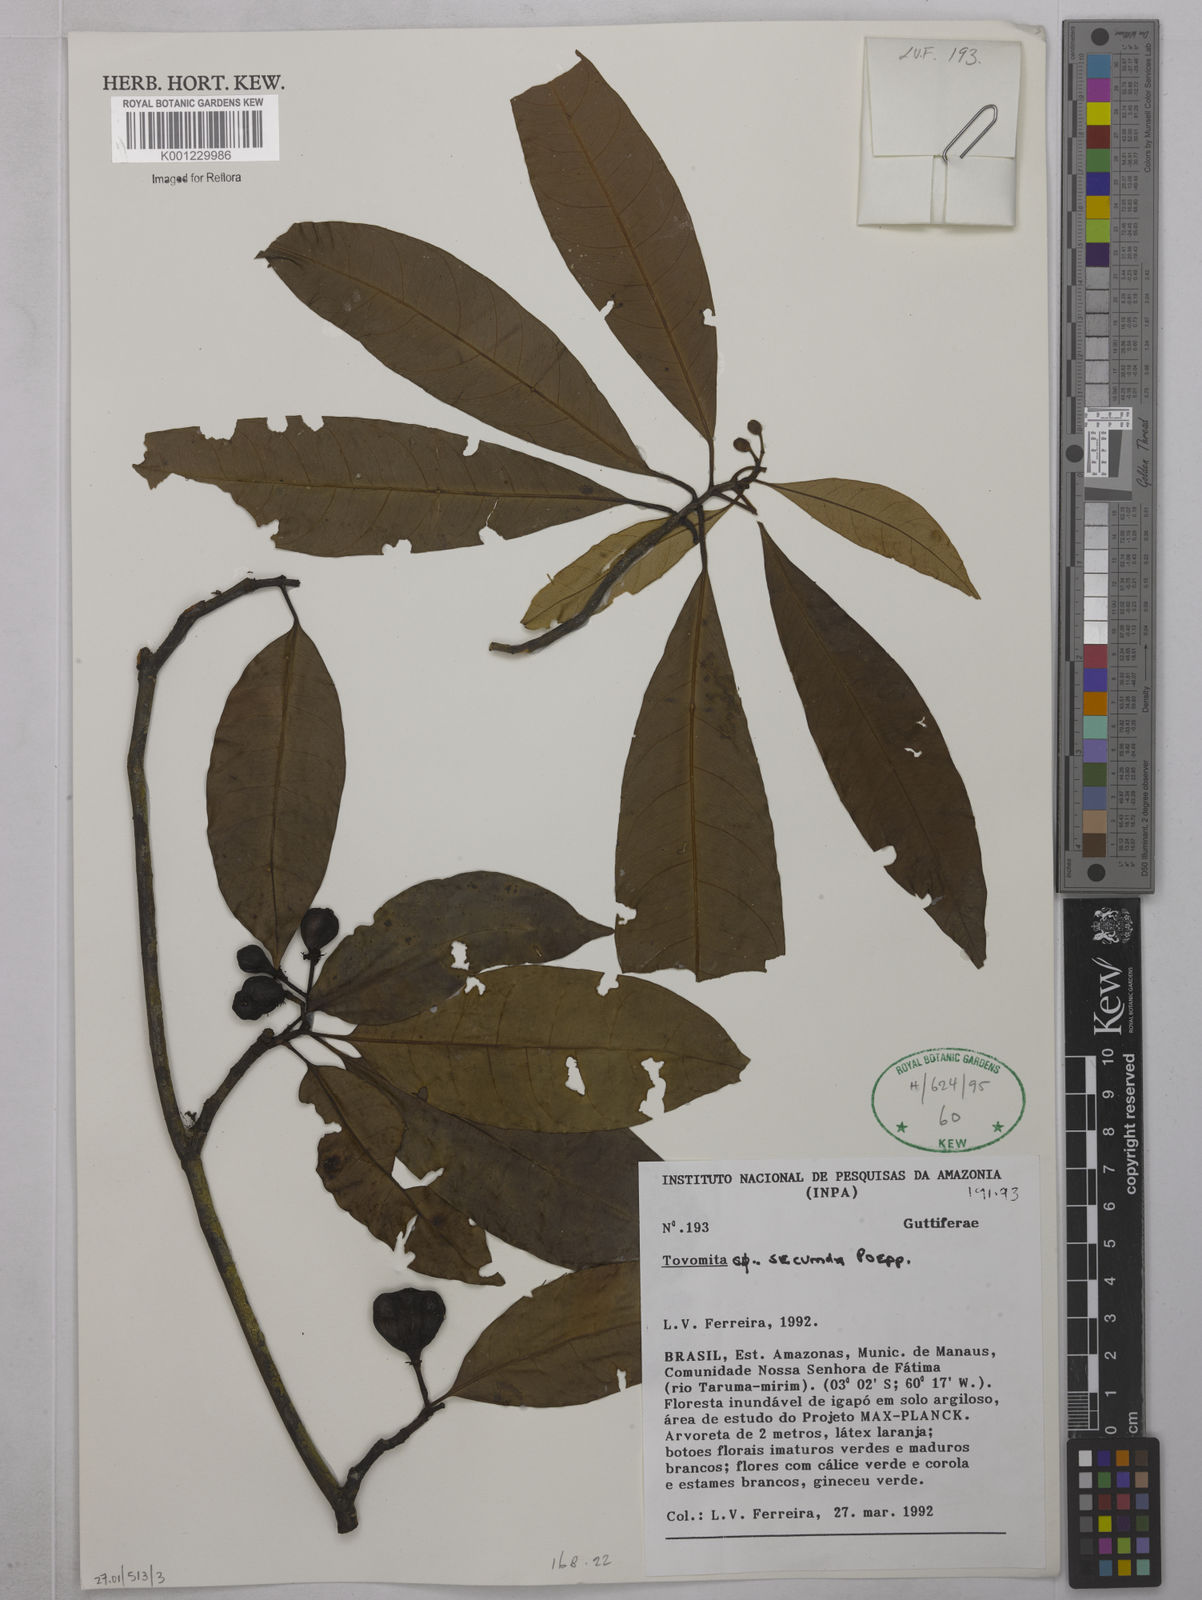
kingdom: Plantae
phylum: Tracheophyta
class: Magnoliopsida
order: Malpighiales
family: Clusiaceae
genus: Tovomita
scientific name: Tovomita gracilipes
